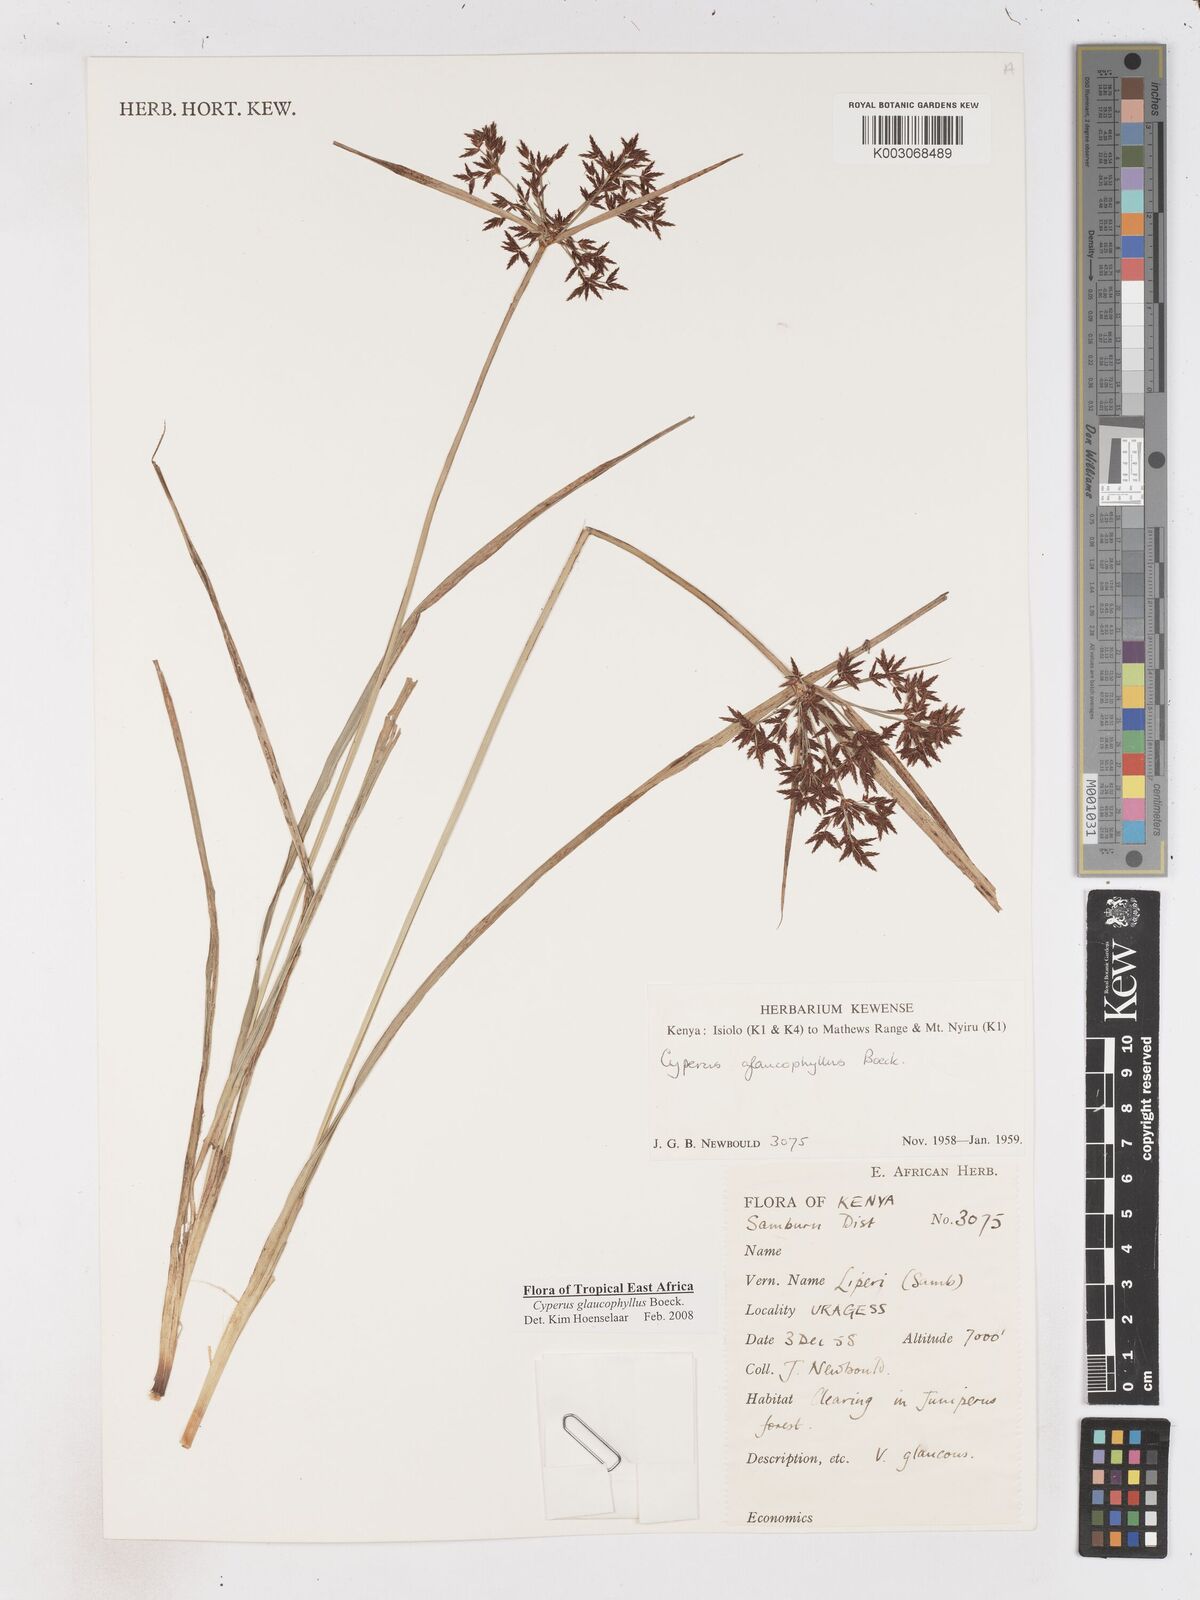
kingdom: Plantae
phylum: Tracheophyta
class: Liliopsida
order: Poales
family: Cyperaceae
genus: Cyperus
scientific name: Cyperus glaucophyllus
